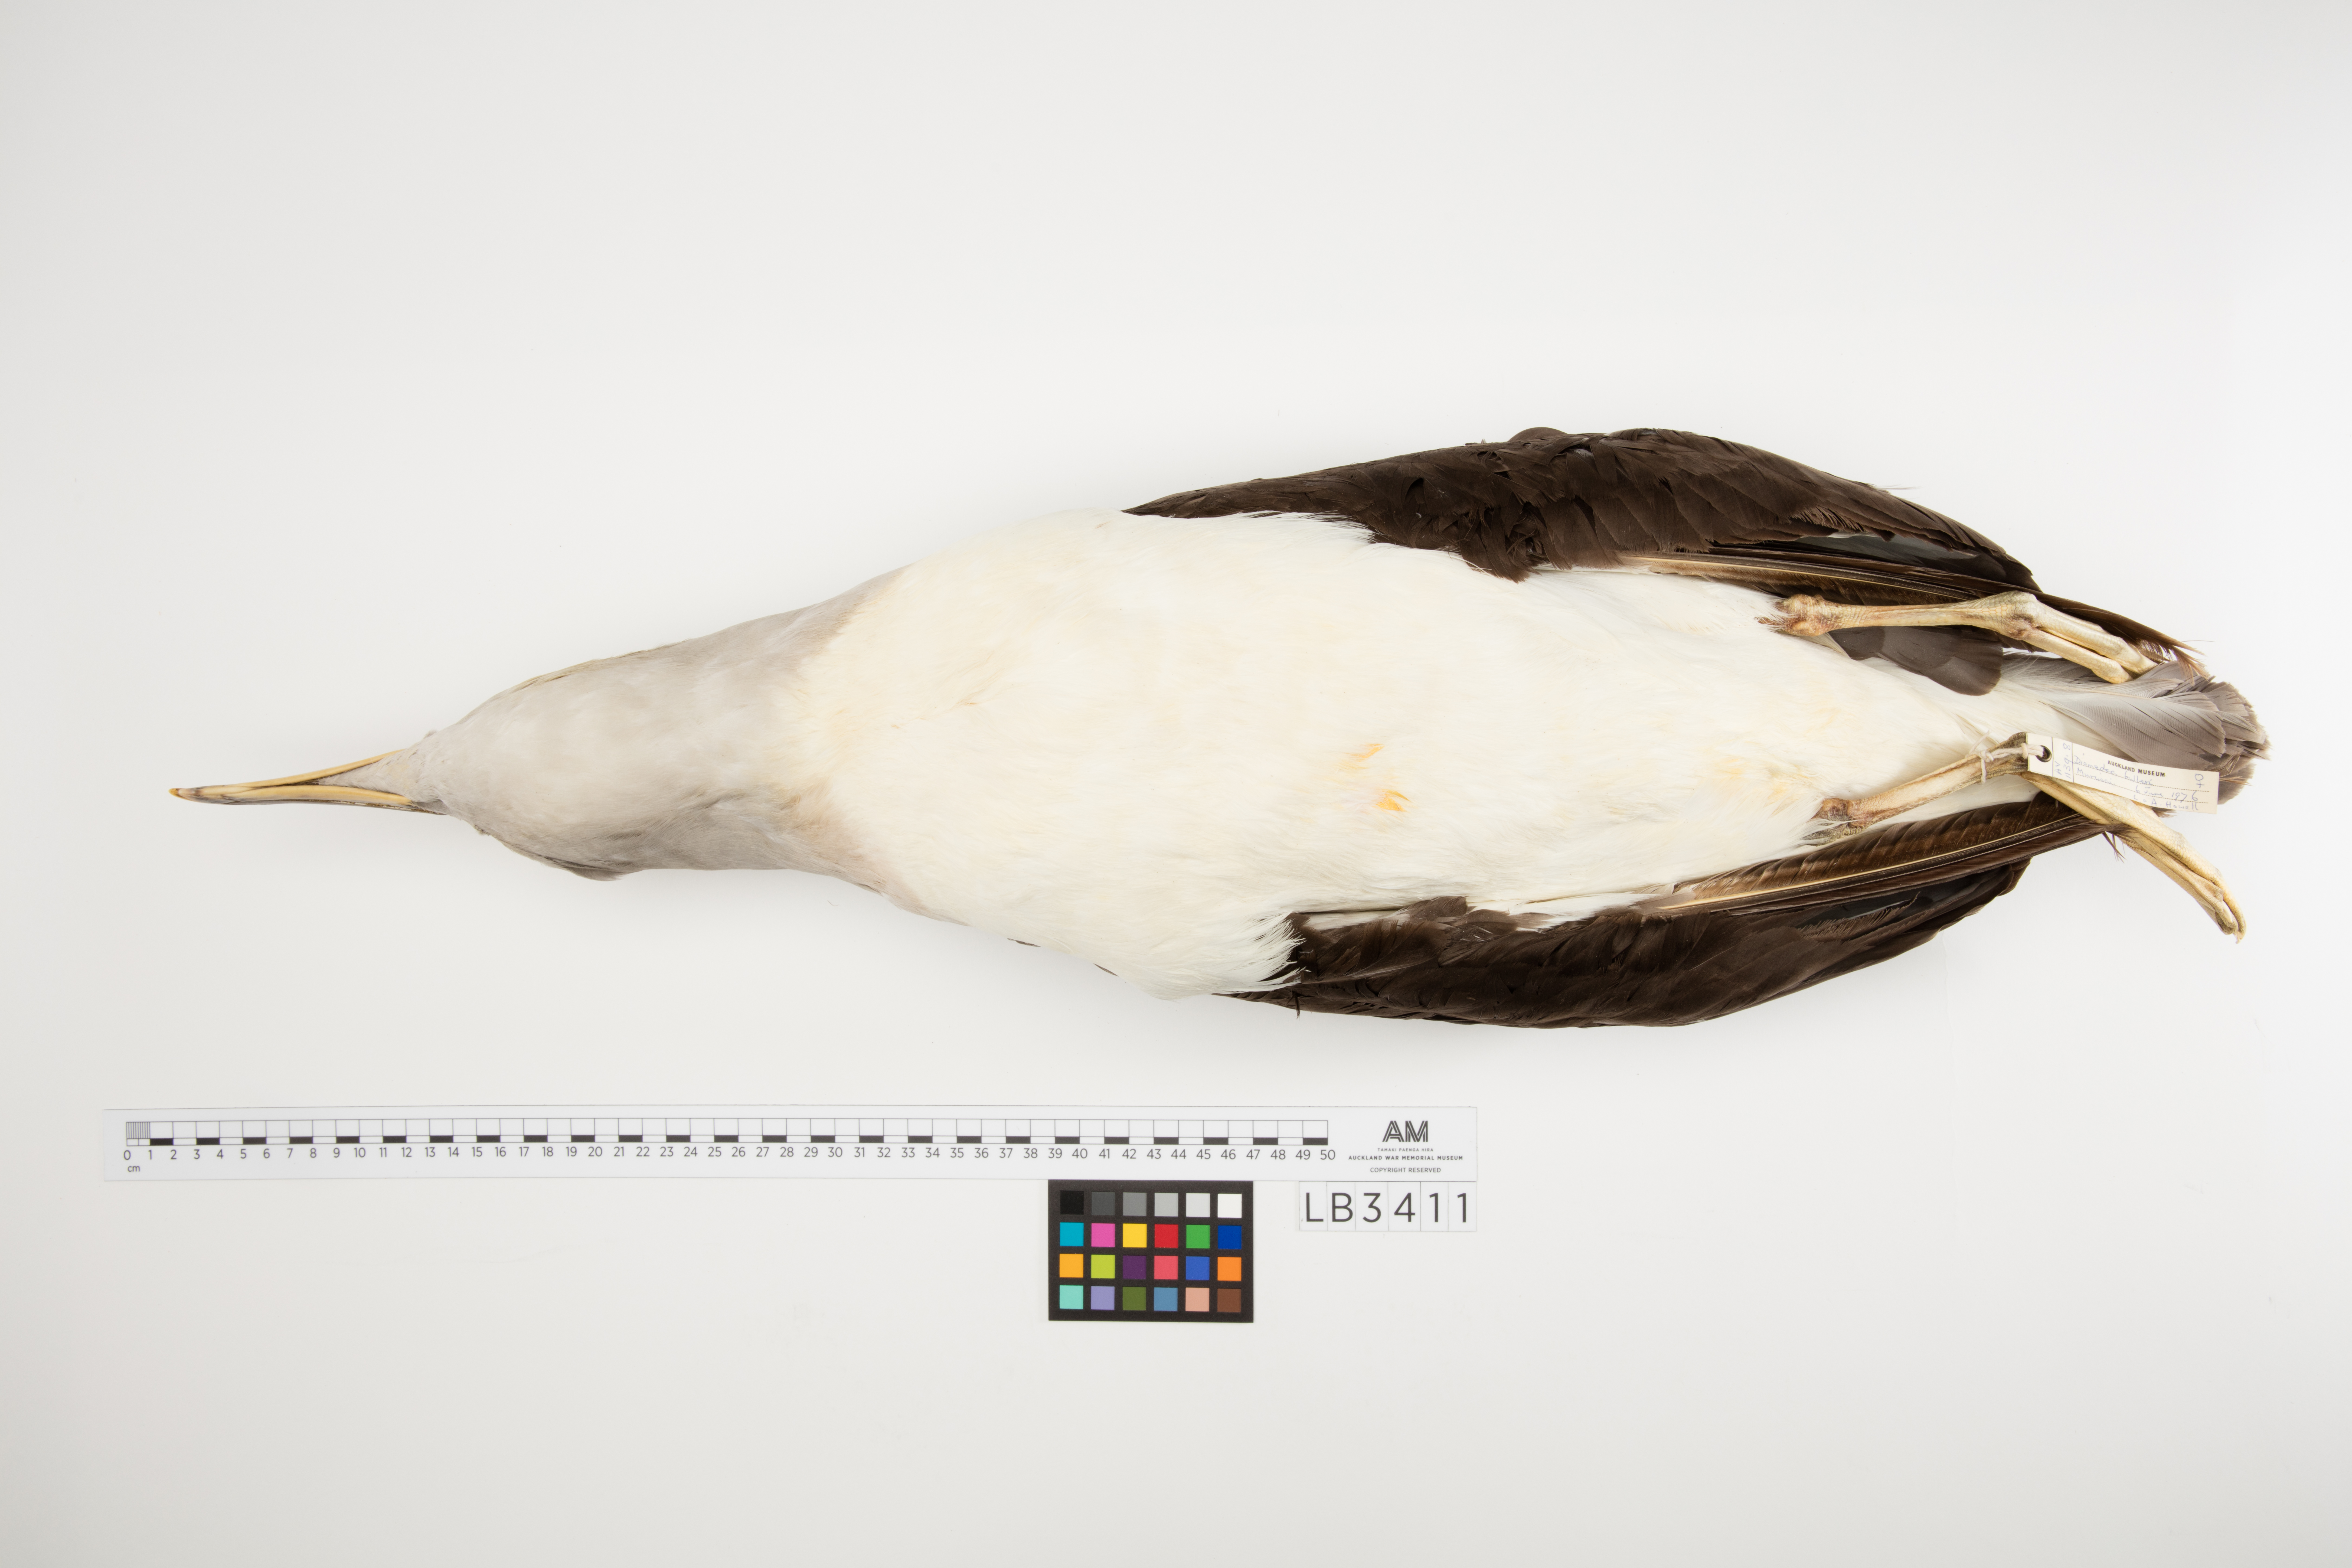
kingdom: Animalia
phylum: Chordata
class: Aves
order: Procellariiformes
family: Diomedeidae
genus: Thalassarche
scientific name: Thalassarche bulleri
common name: Buller's albatross
